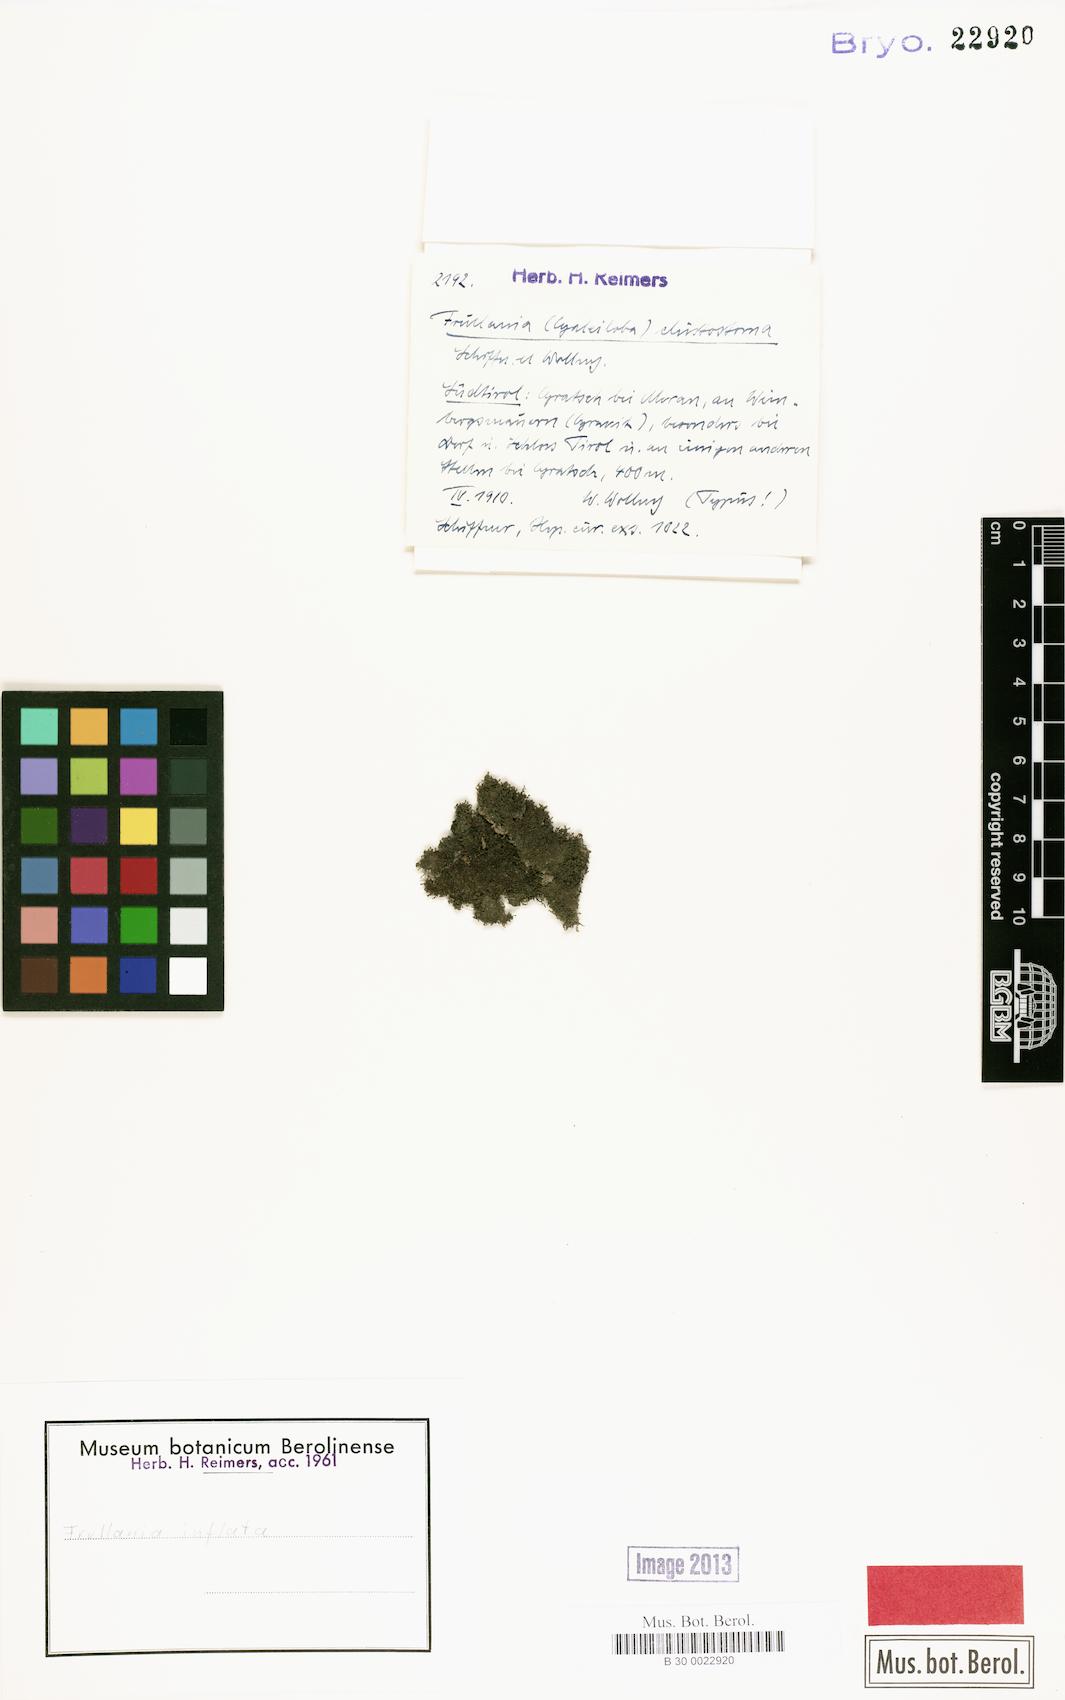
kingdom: Plantae
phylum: Marchantiophyta
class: Jungermanniopsida
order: Porellales
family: Frullaniaceae
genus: Frullania
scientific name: Frullania inflata
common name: Inflated scalewort
